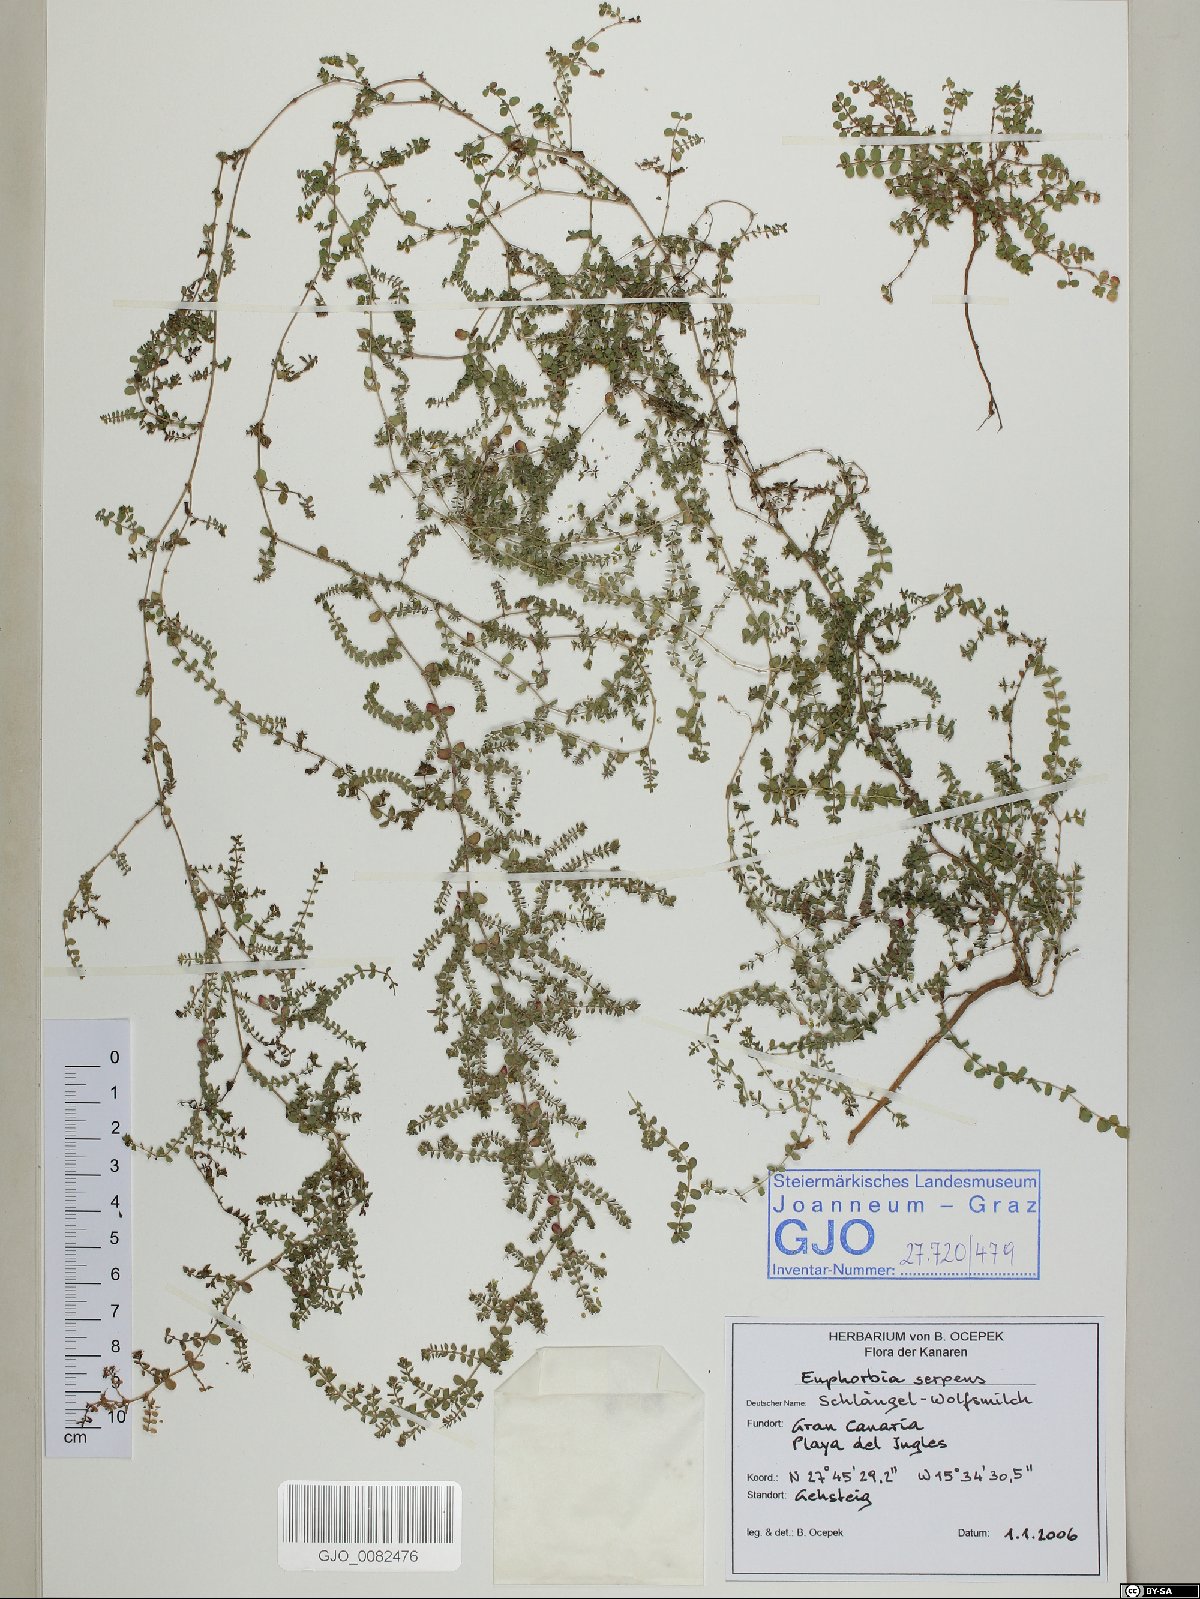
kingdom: Plantae
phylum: Tracheophyta
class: Magnoliopsida
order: Malpighiales
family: Euphorbiaceae
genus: Euphorbia
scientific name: Euphorbia serpens
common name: Matted sandmat
